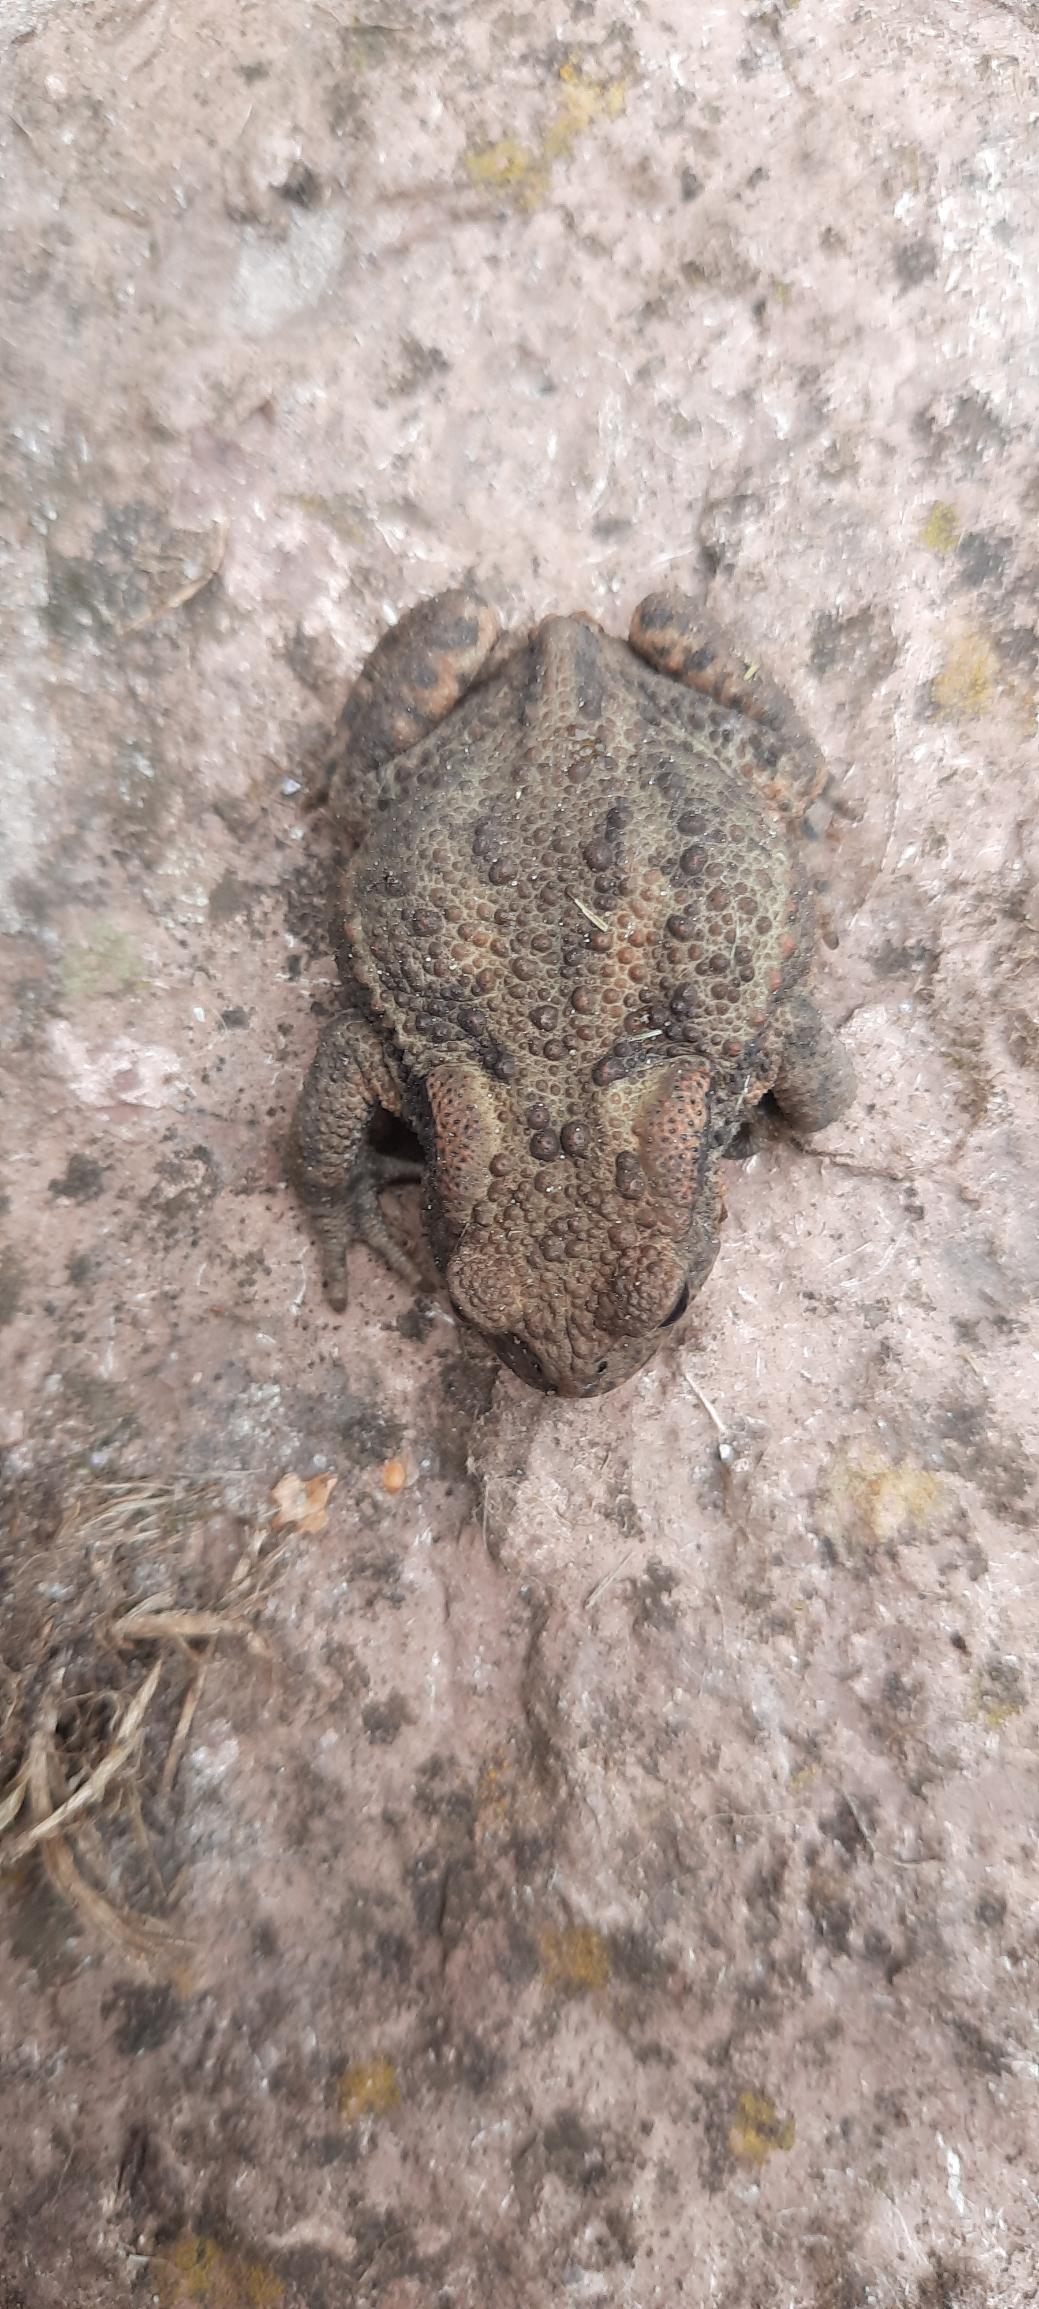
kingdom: Animalia
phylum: Chordata
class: Amphibia
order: Anura
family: Bufonidae
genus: Bufo
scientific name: Bufo bufo
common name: Skrubtudse
